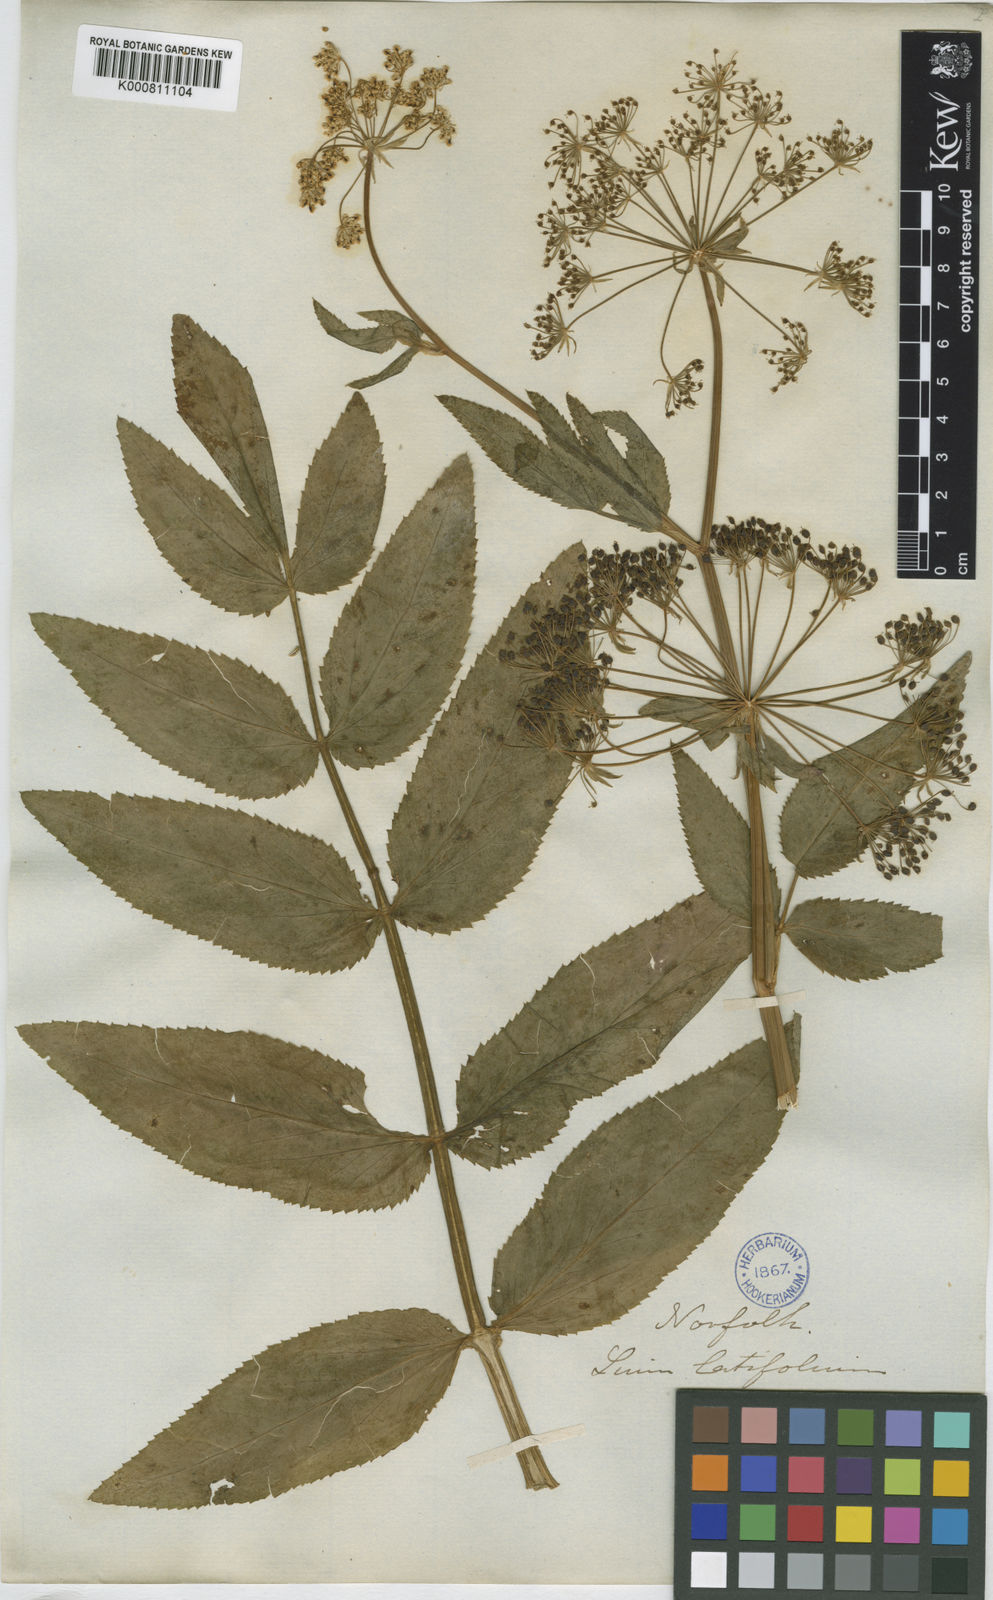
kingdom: Plantae
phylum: Tracheophyta
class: Magnoliopsida
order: Apiales
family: Apiaceae
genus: Sium
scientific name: Sium latifolium
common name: Greater water-parsnip
